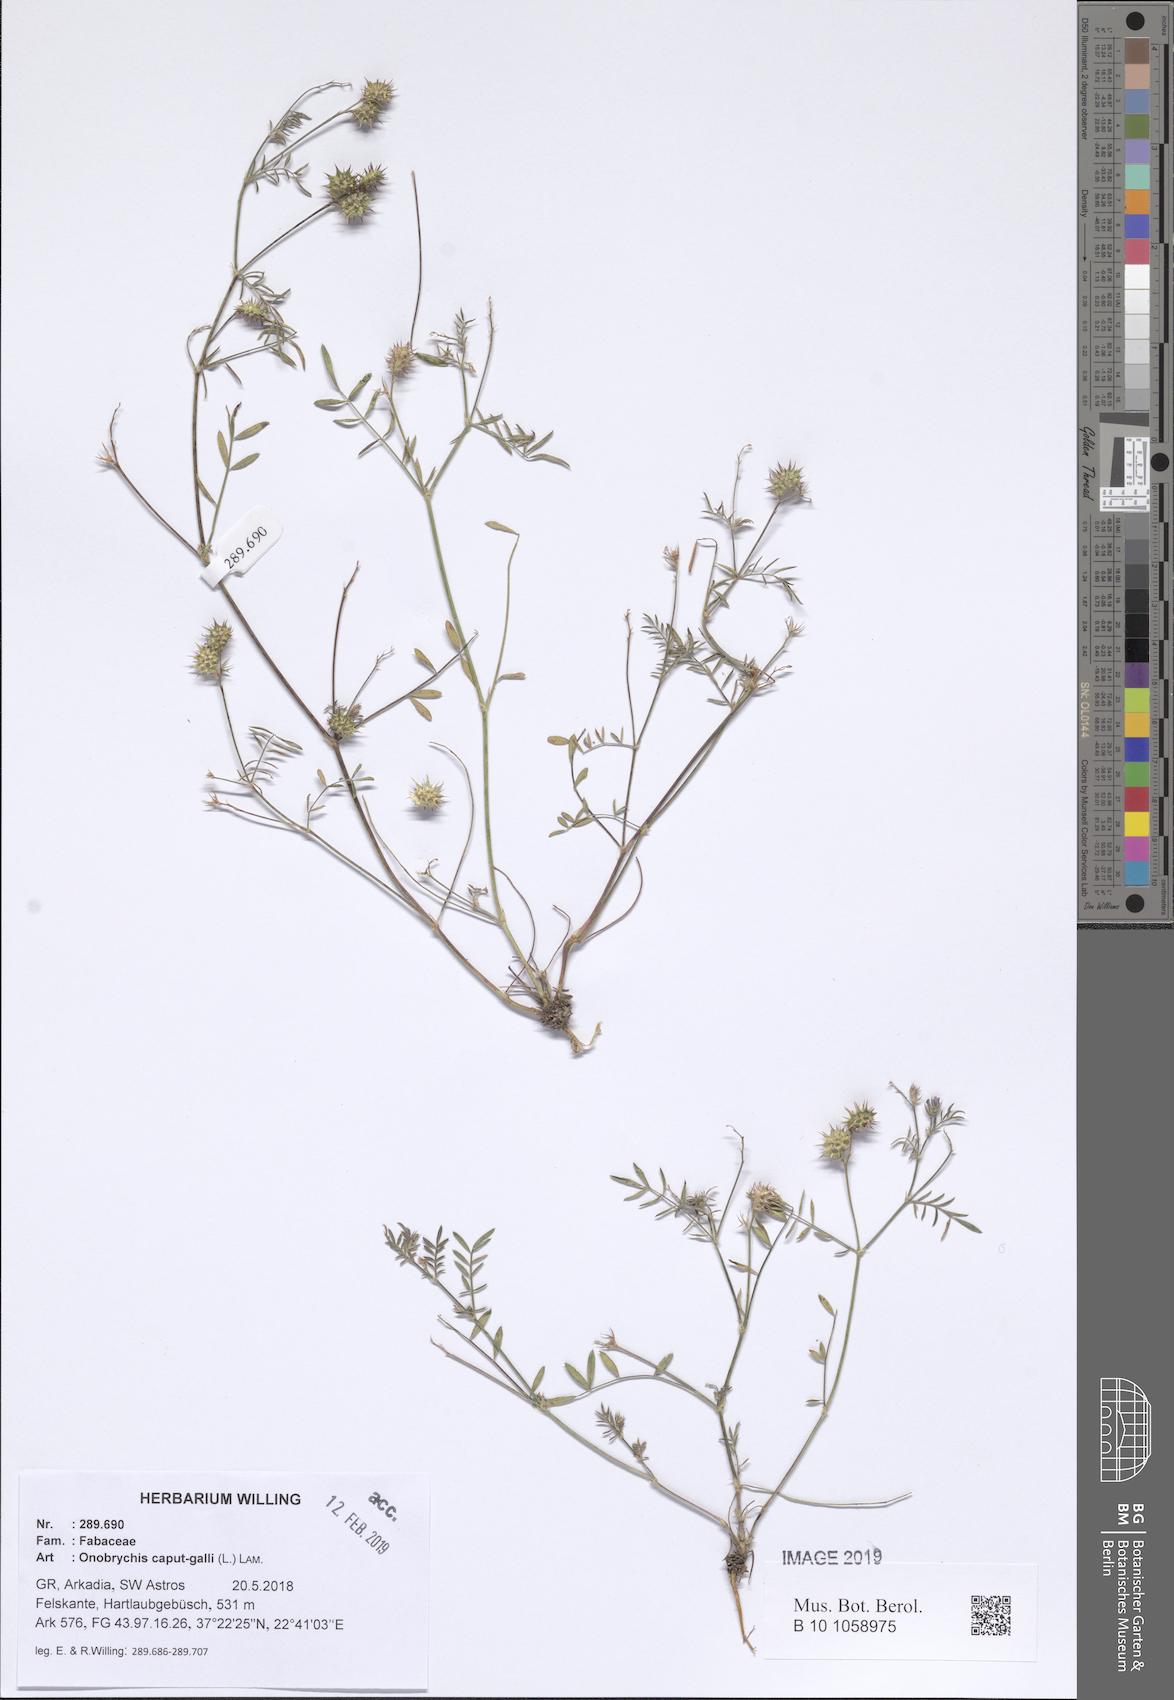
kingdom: Plantae
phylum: Tracheophyta
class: Magnoliopsida
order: Fabales
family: Fabaceae
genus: Onobrychis
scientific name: Onobrychis caput-galli
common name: Cockscomb sainfoin
